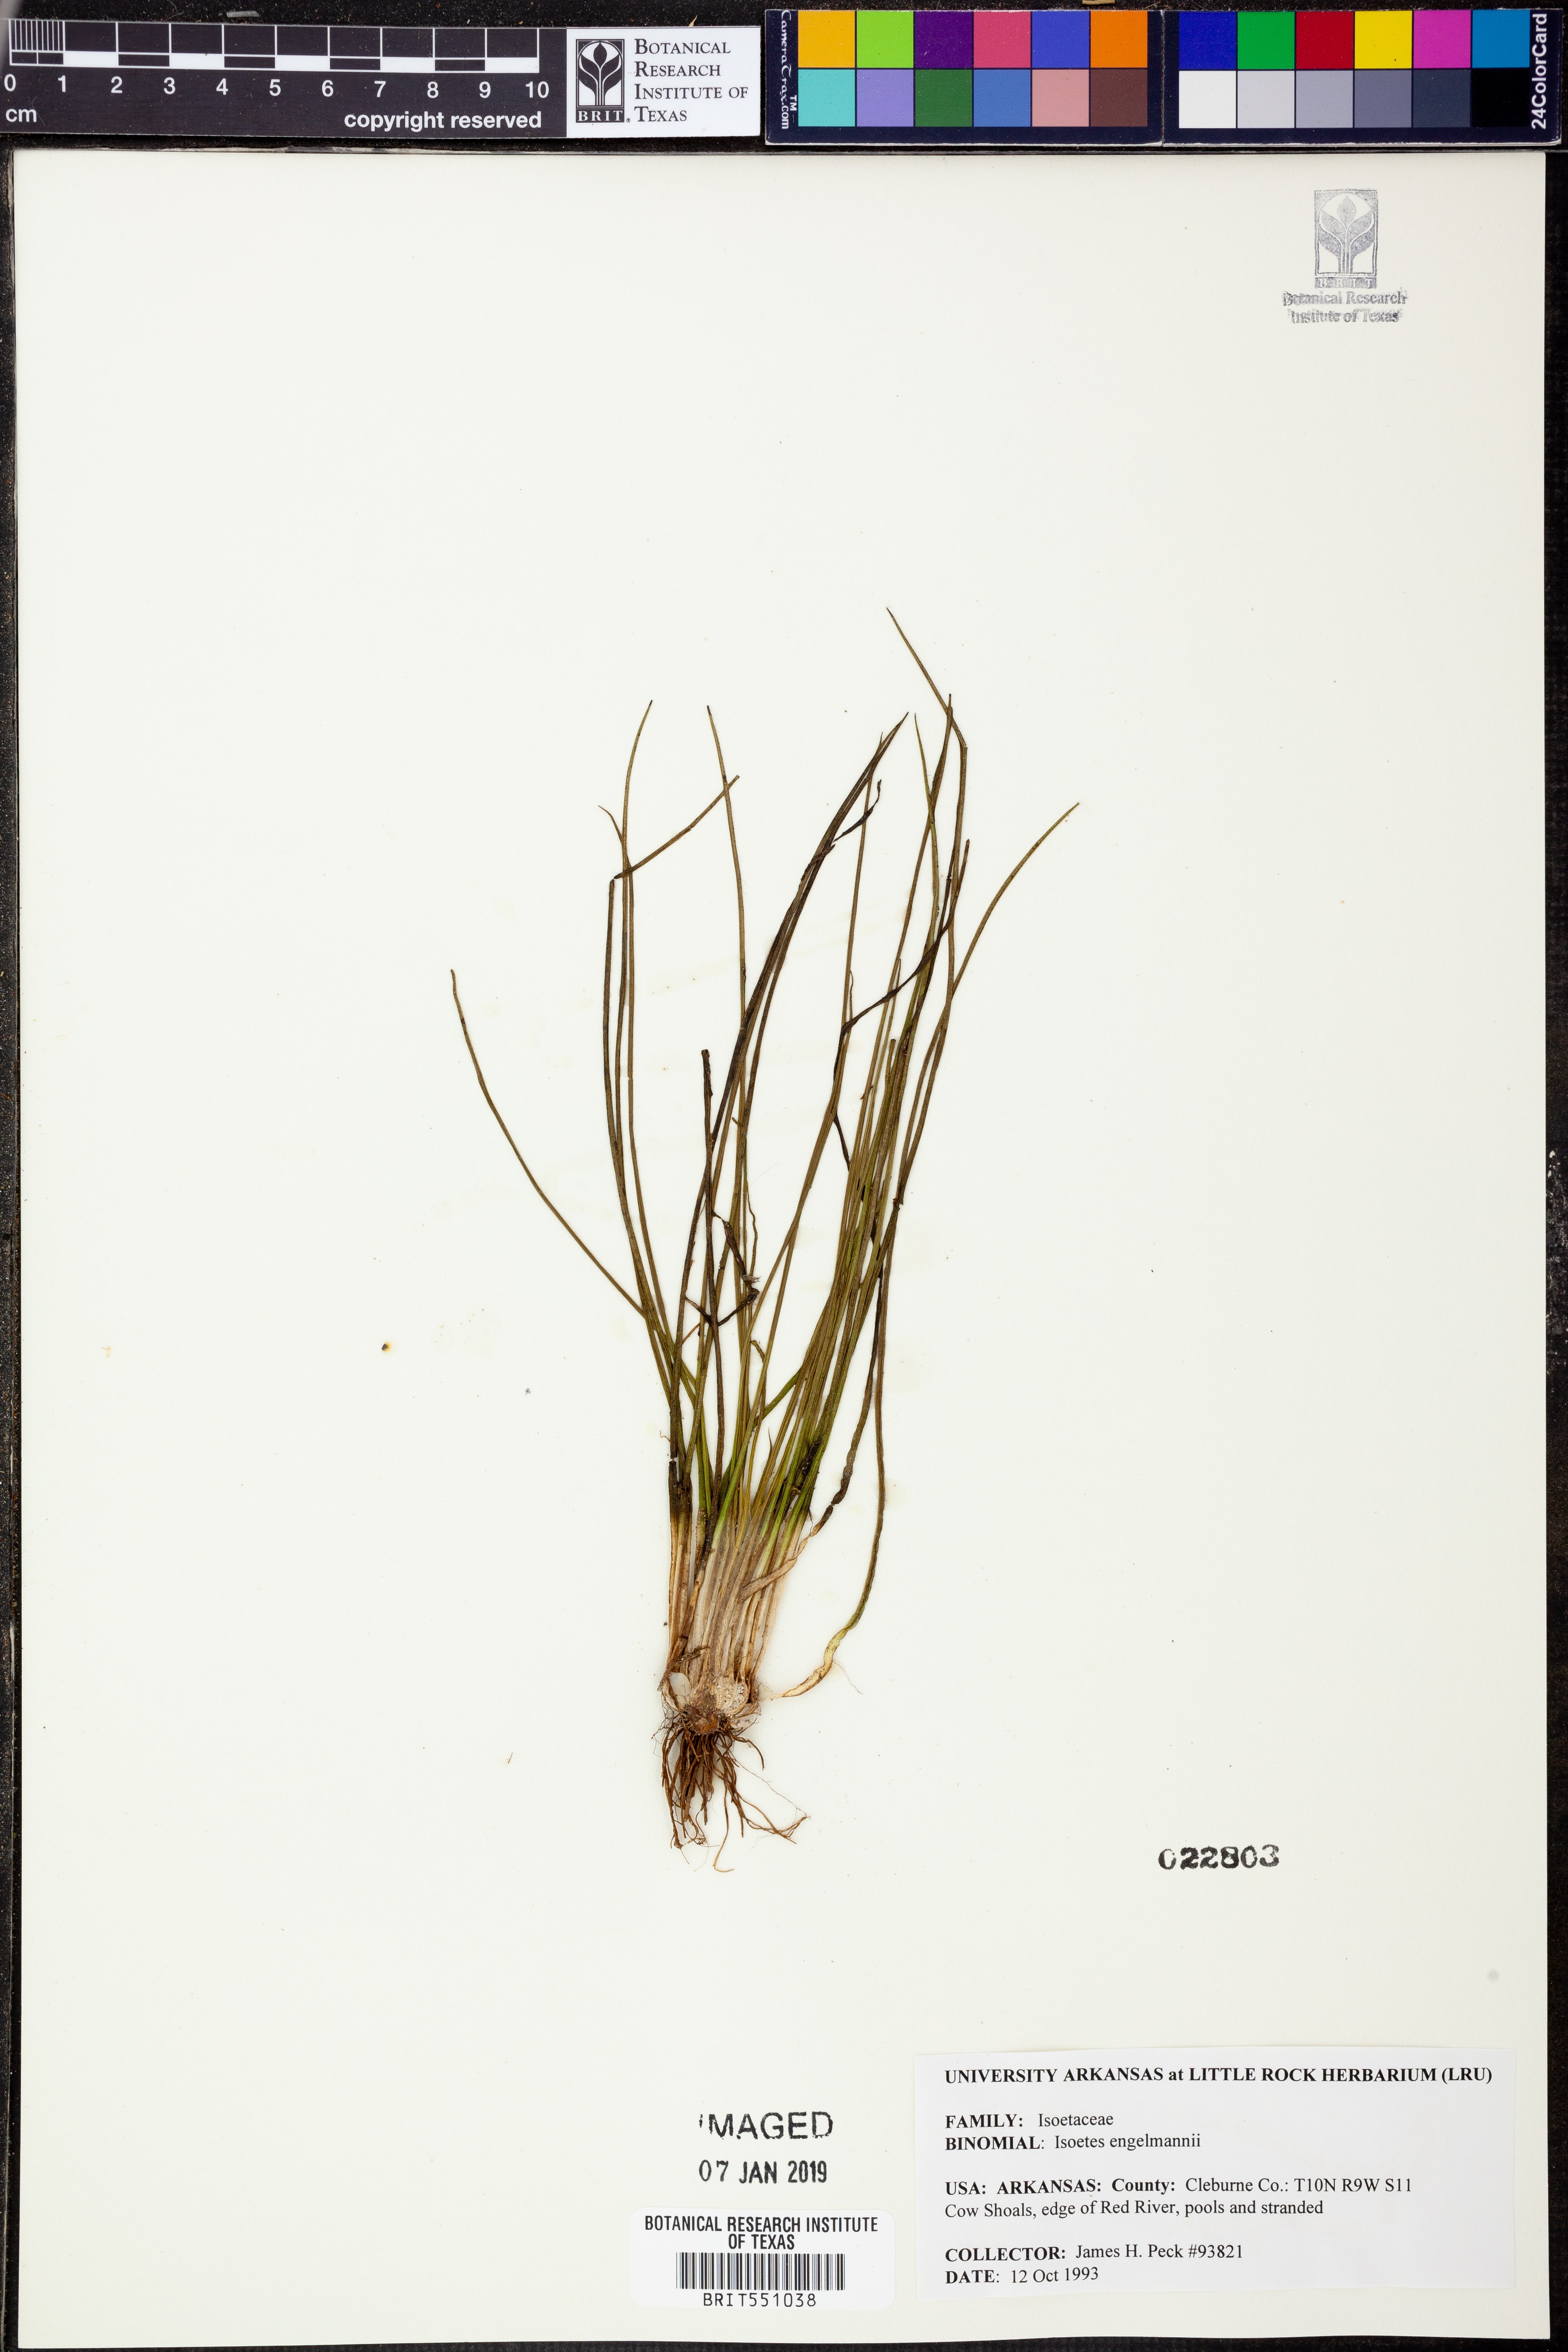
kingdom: Plantae
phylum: Tracheophyta
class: Lycopodiopsida
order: Isoetales
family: Isoetaceae
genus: Isoetes
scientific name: Isoetes engelmannii
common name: Engelmann's quillwort
